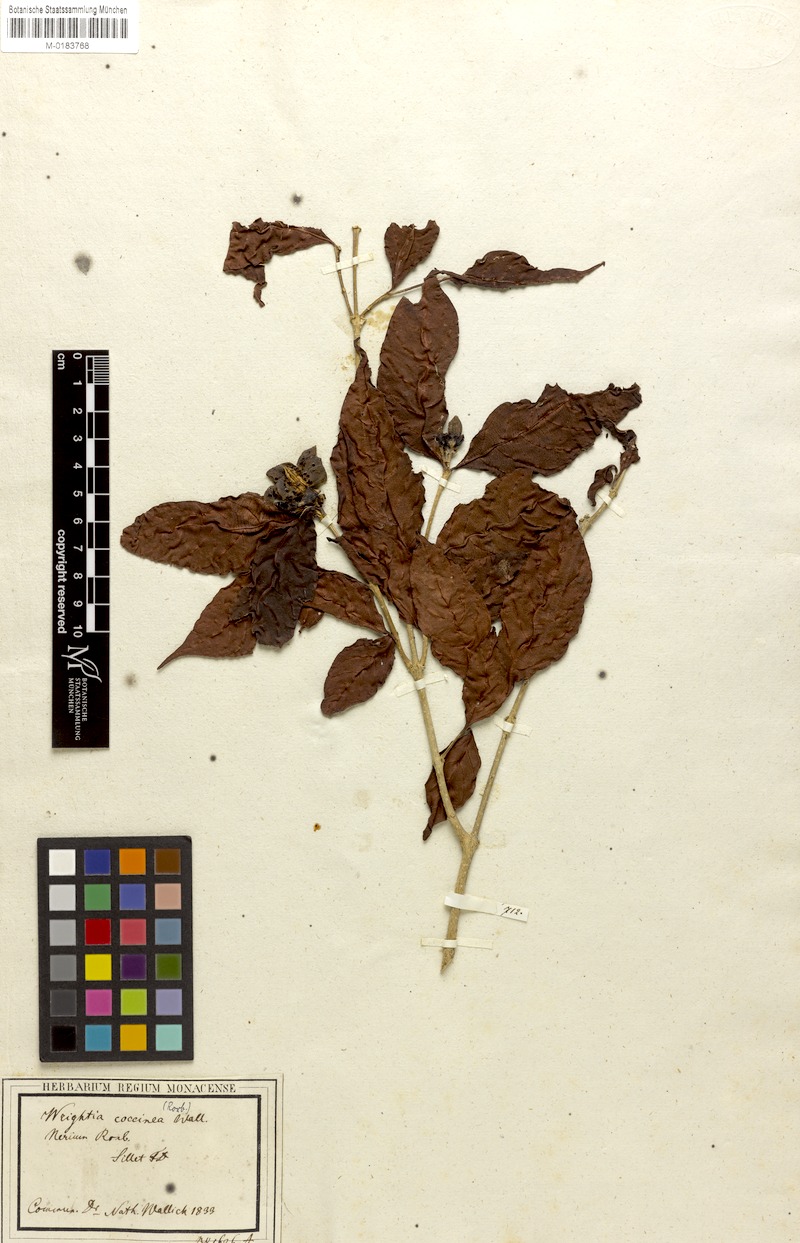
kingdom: Plantae
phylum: Tracheophyta
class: Magnoliopsida
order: Gentianales
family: Apocynaceae
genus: Wrightia
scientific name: Wrightia coccinea
